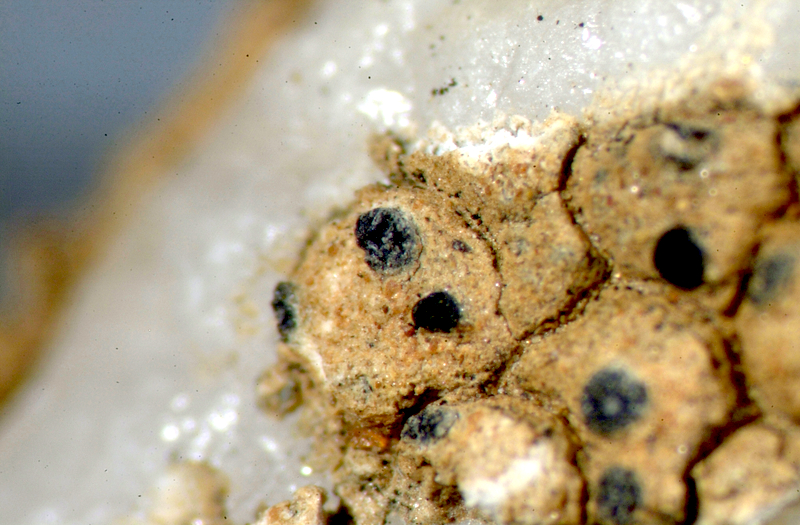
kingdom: Fungi
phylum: Ascomycota
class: Lecanoromycetes
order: Teloschistales
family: Teloschistaceae
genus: Caloplaca
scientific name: Caloplaca
